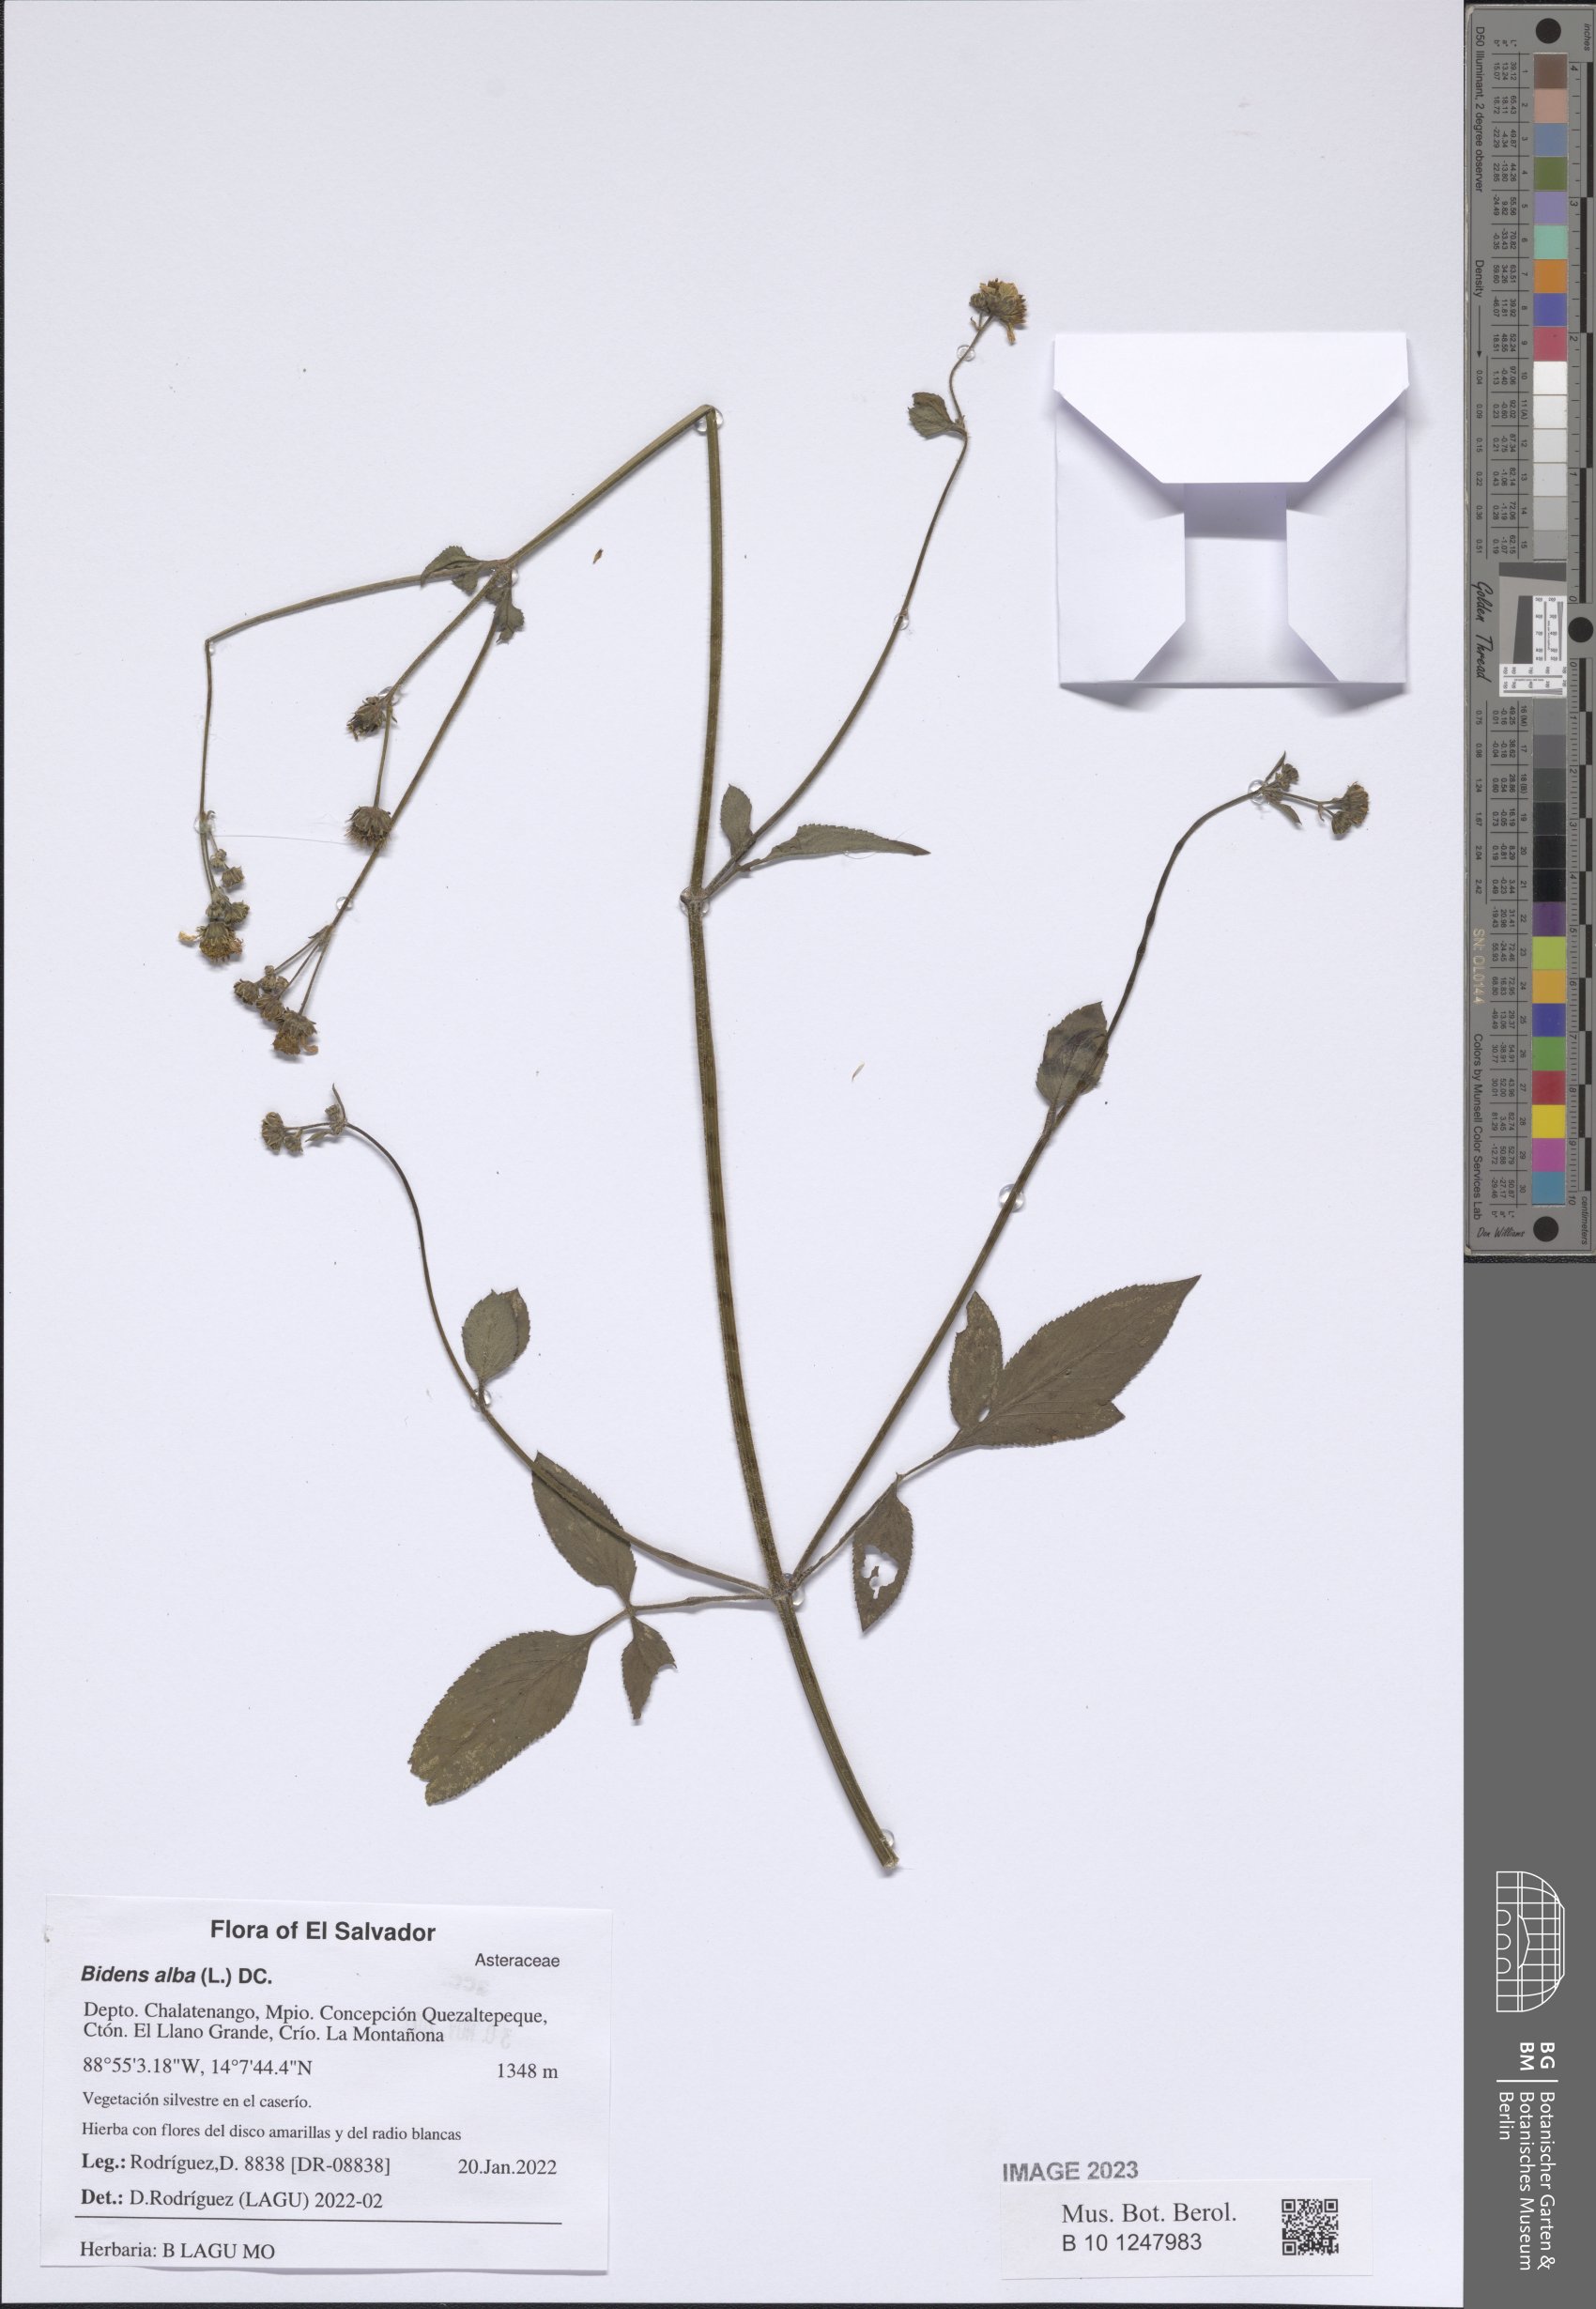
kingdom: Plantae
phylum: Tracheophyta
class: Magnoliopsida
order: Asterales
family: Asteraceae
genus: Bidens
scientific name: Bidens alba
